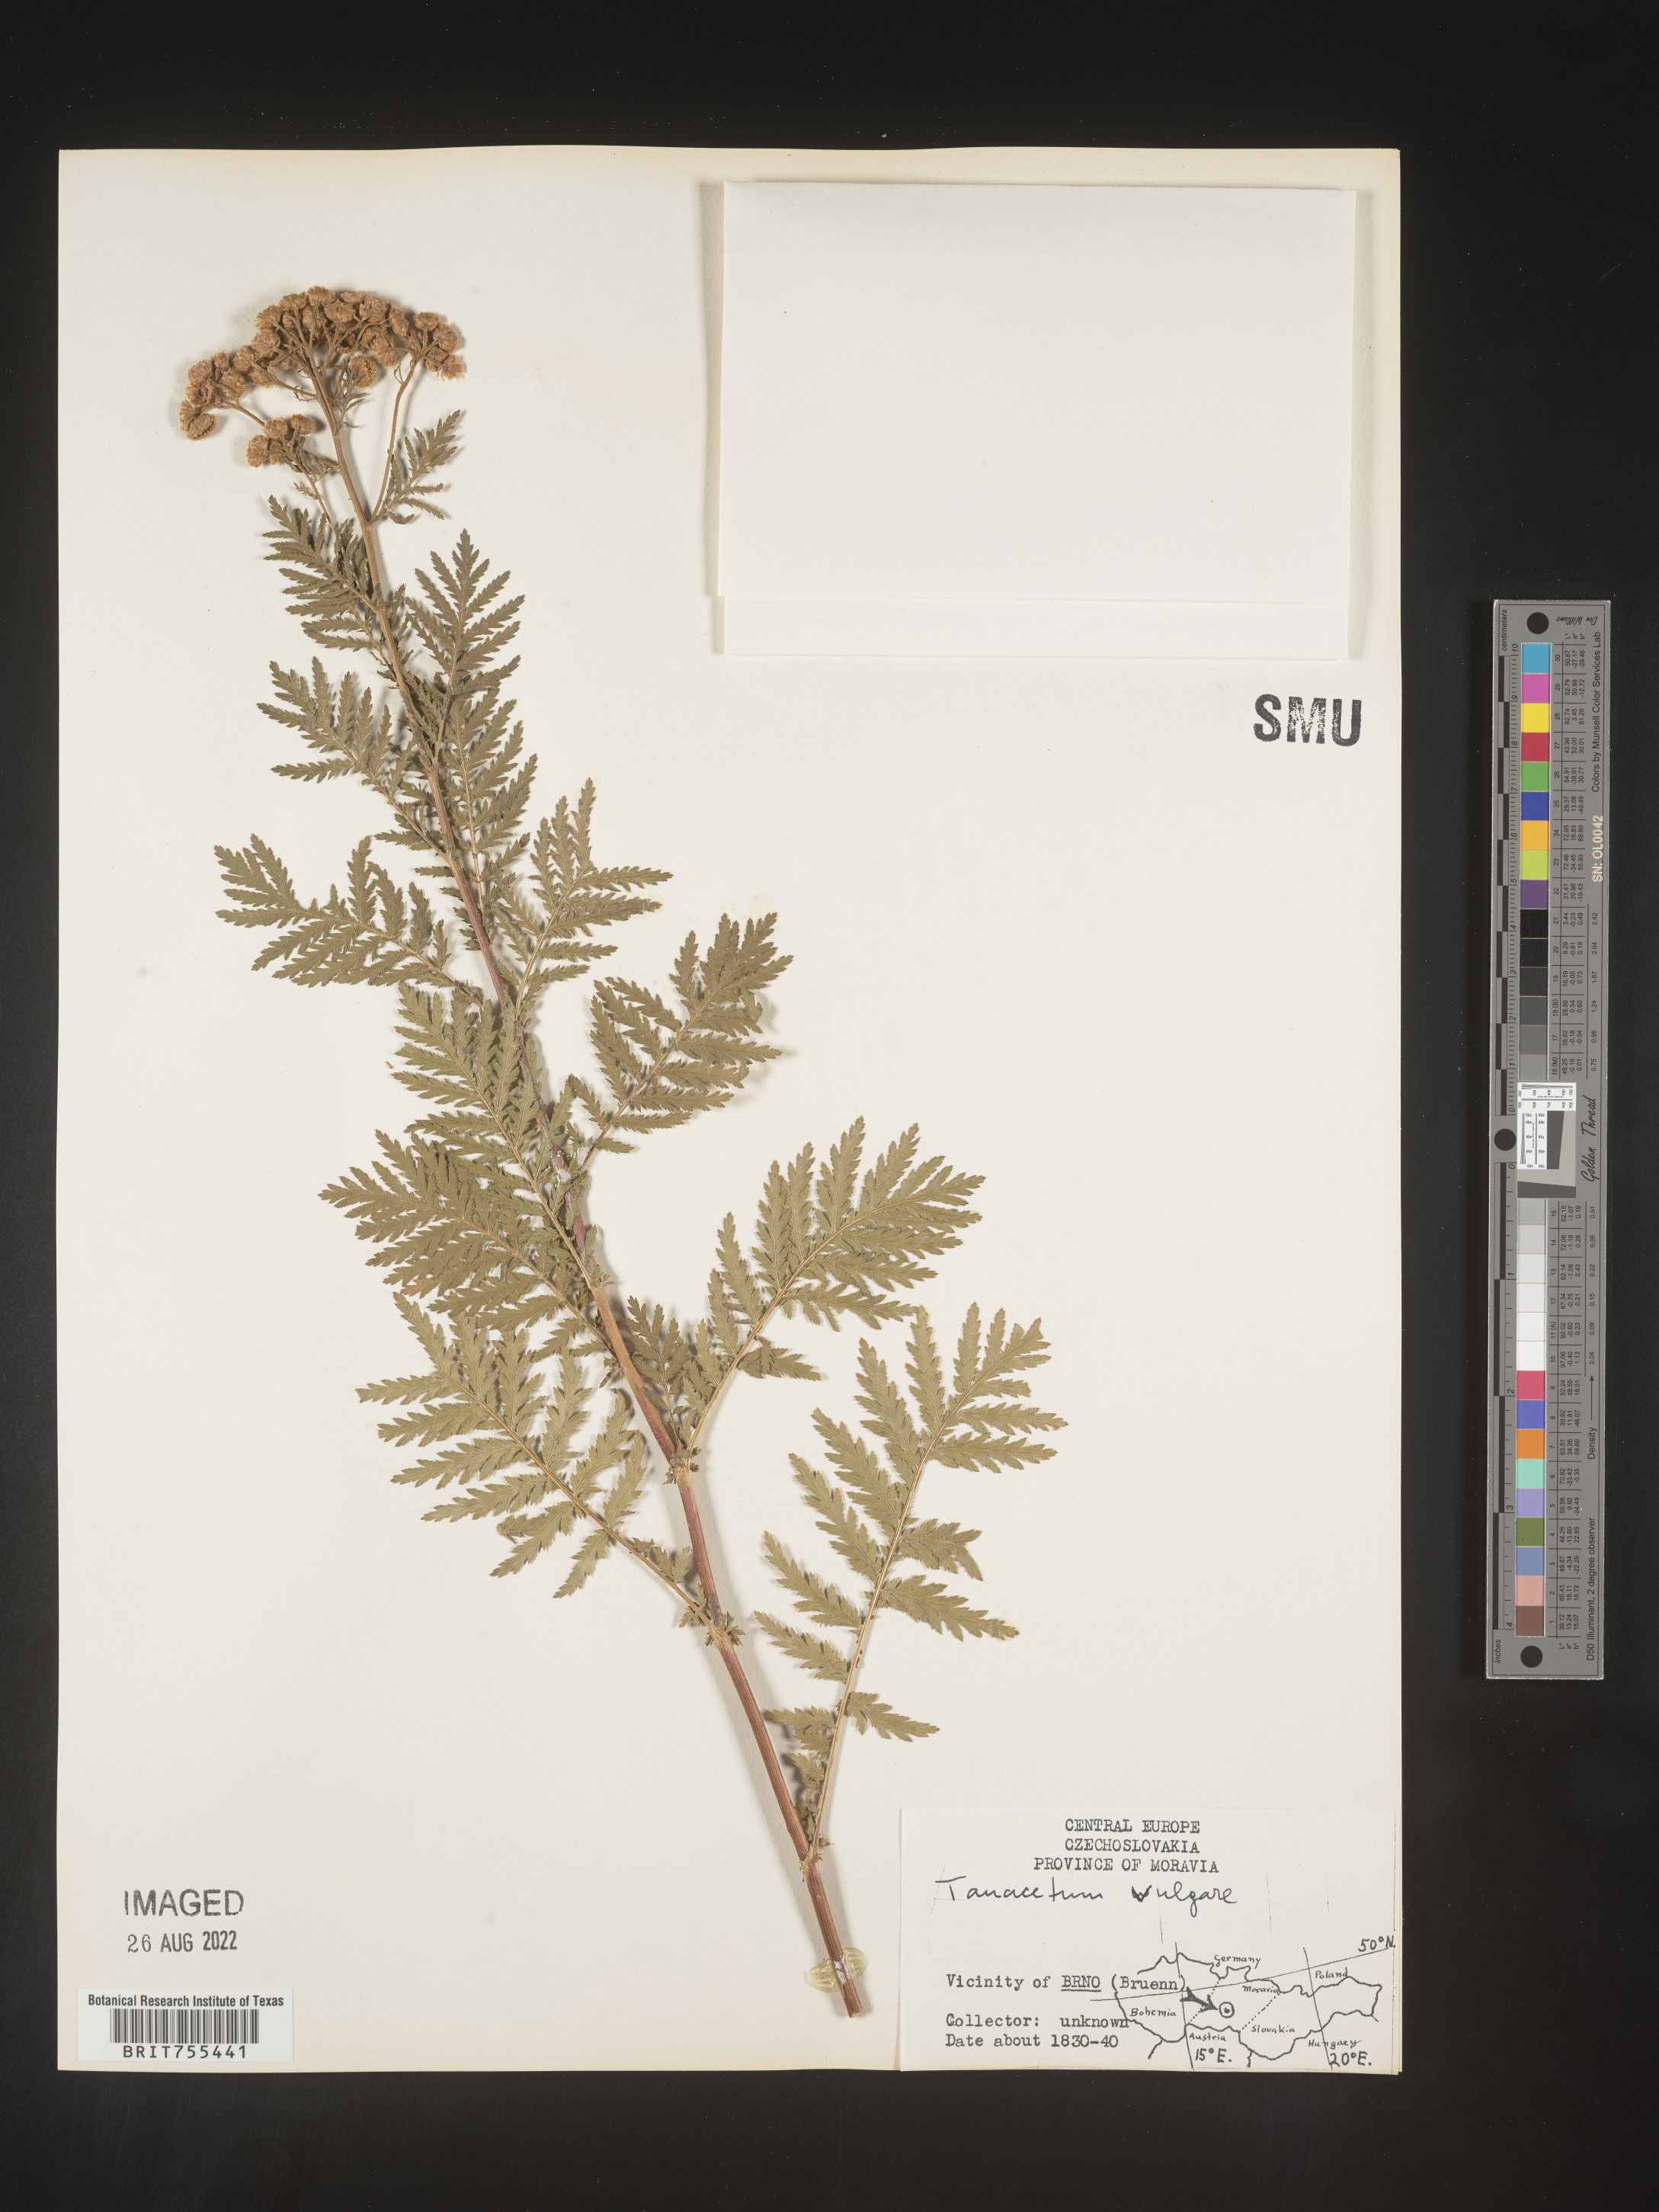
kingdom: Plantae
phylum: Tracheophyta
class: Magnoliopsida
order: Asterales
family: Asteraceae
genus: Tanacetum
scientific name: Tanacetum
